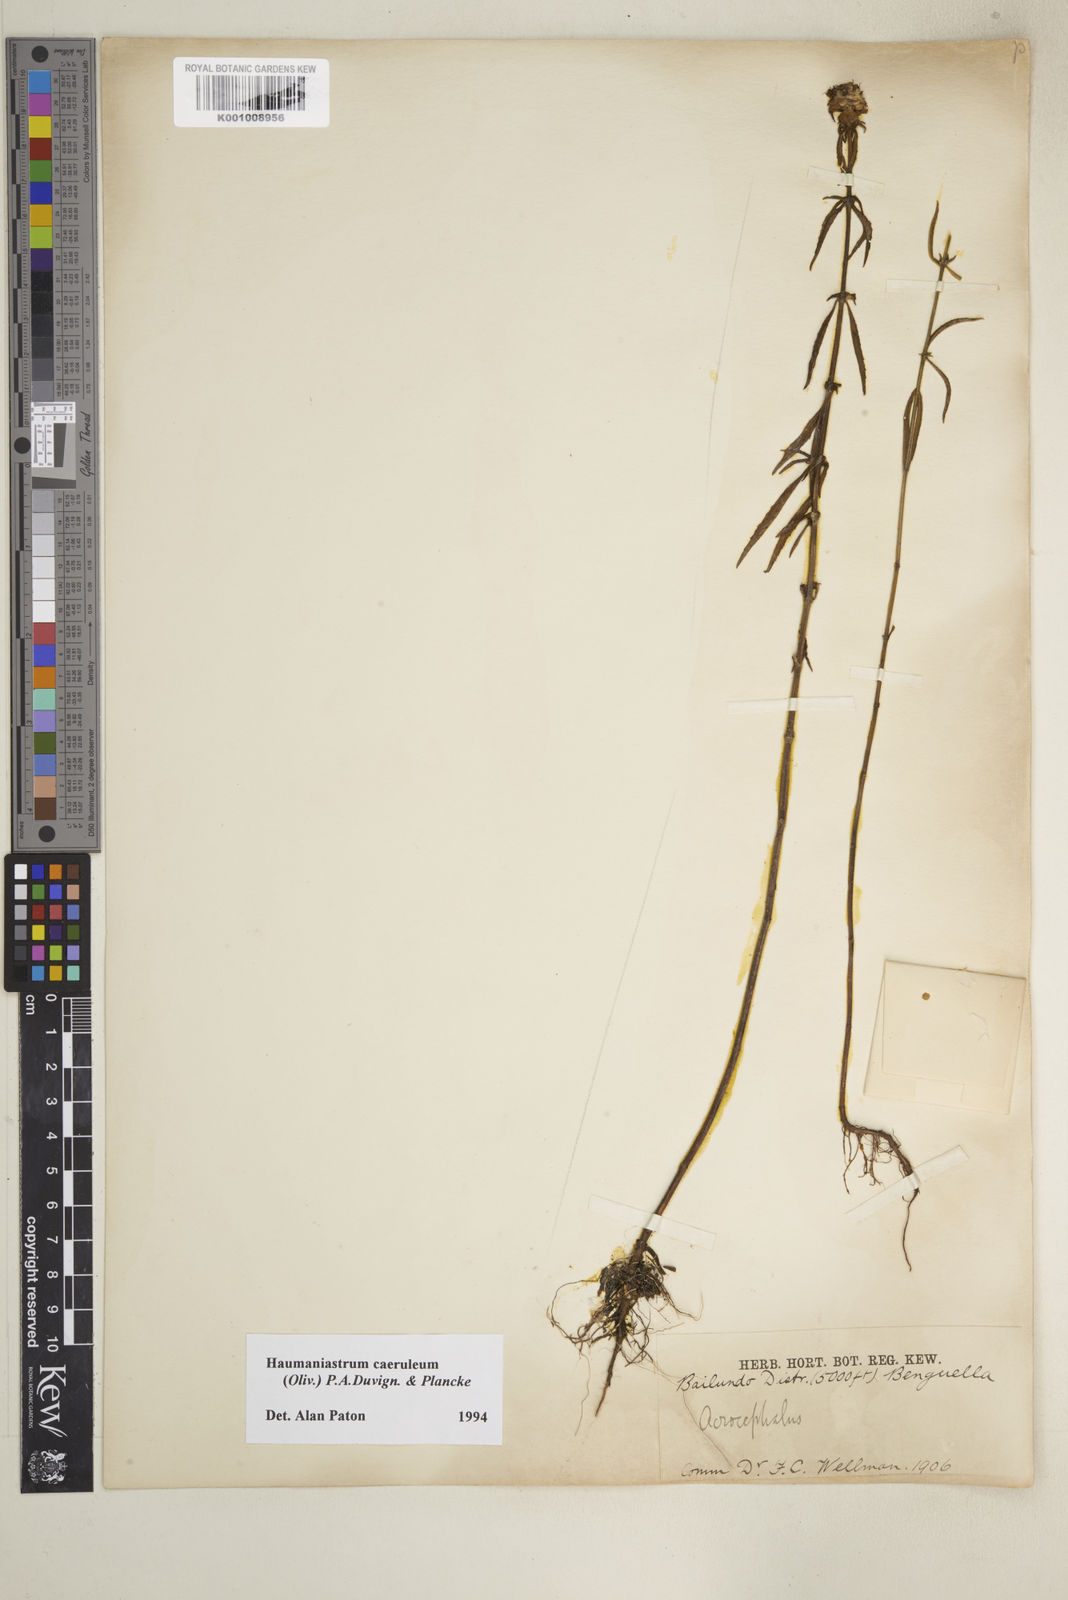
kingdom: Plantae
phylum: Tracheophyta
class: Magnoliopsida
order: Lamiales
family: Lamiaceae
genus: Haumaniastrum
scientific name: Haumaniastrum caeruleum
